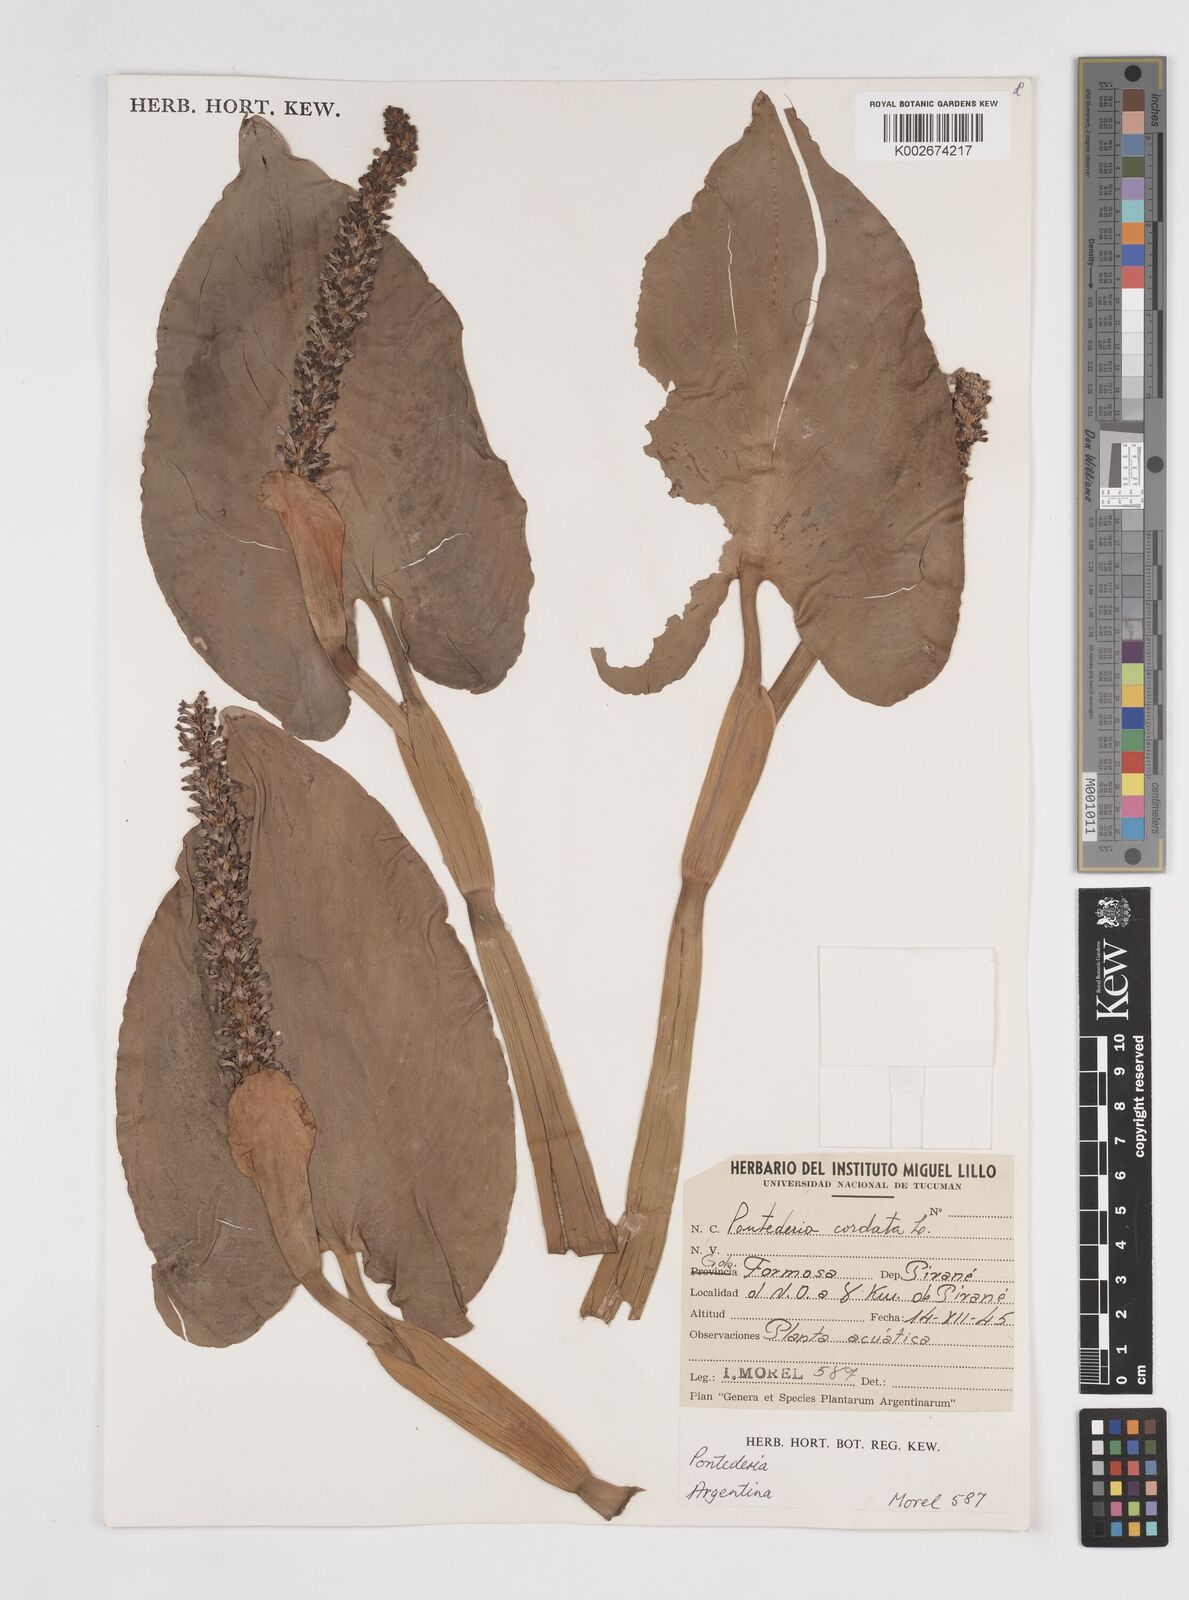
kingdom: Plantae
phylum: Tracheophyta
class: Liliopsida
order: Commelinales
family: Pontederiaceae
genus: Pontederia
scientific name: Pontederia
